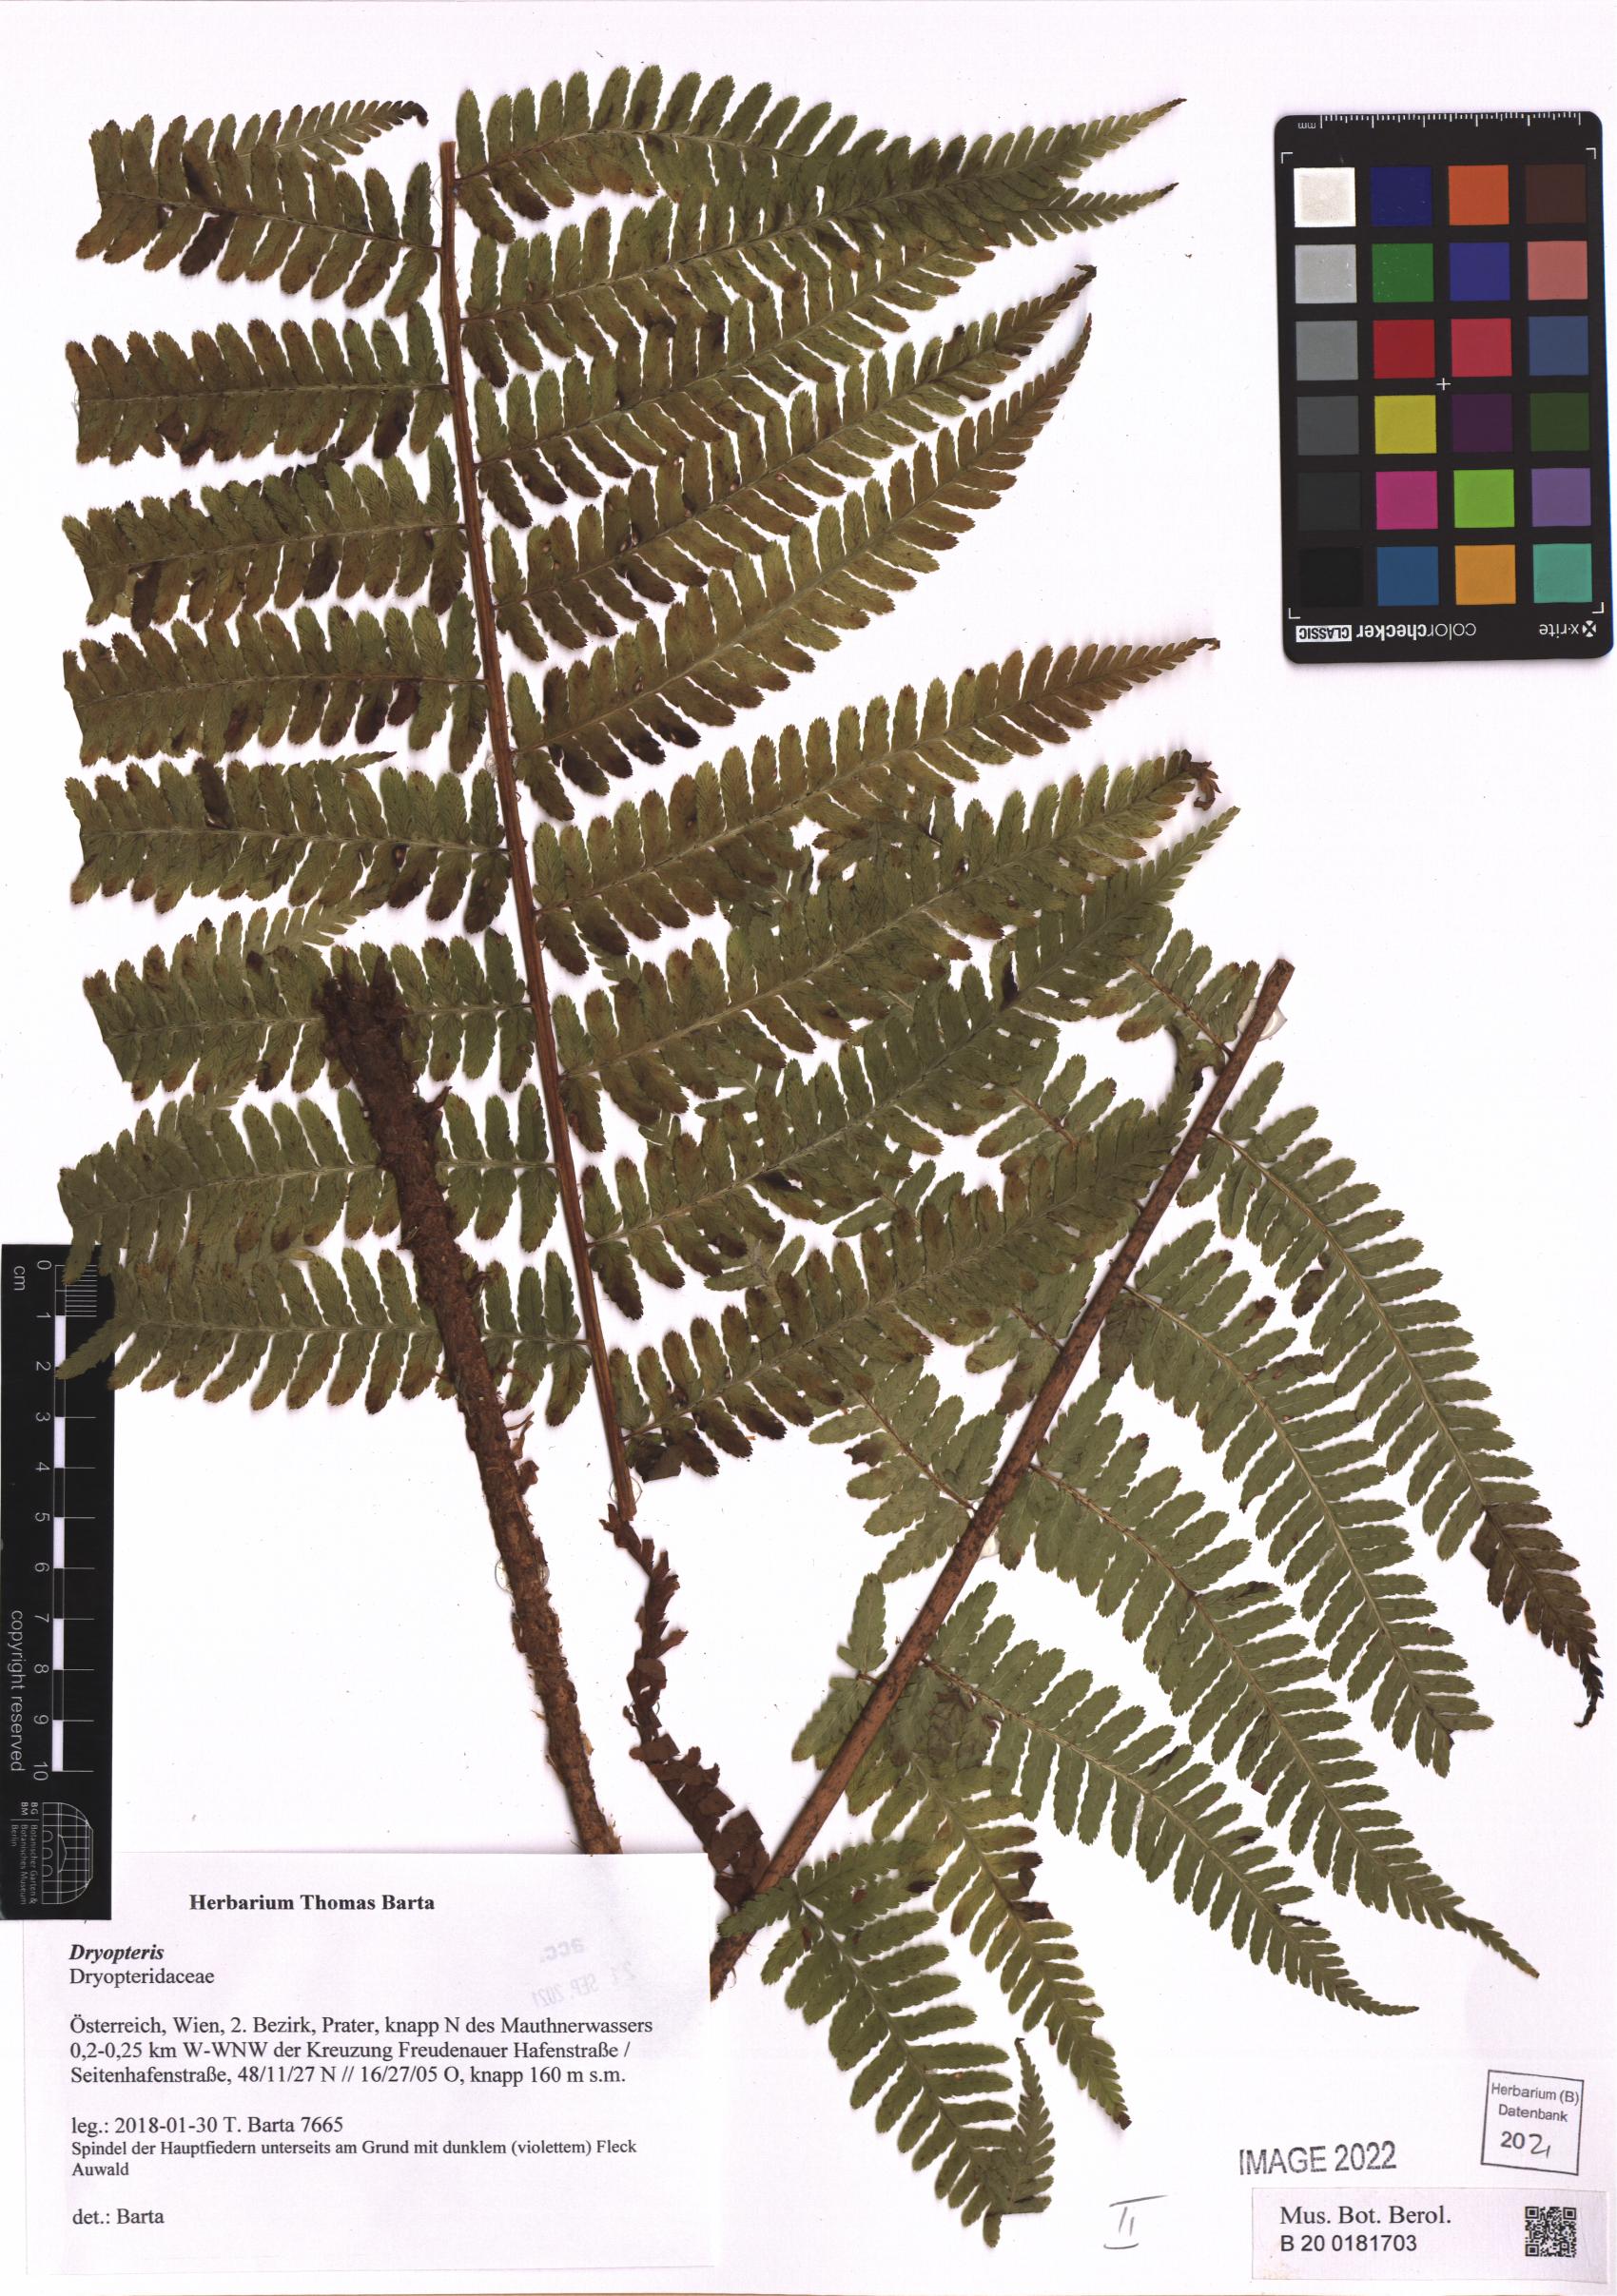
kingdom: Plantae
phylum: Tracheophyta
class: Polypodiopsida
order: Polypodiales
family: Dryopteridaceae
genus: Dryopteris
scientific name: Dryopteris
